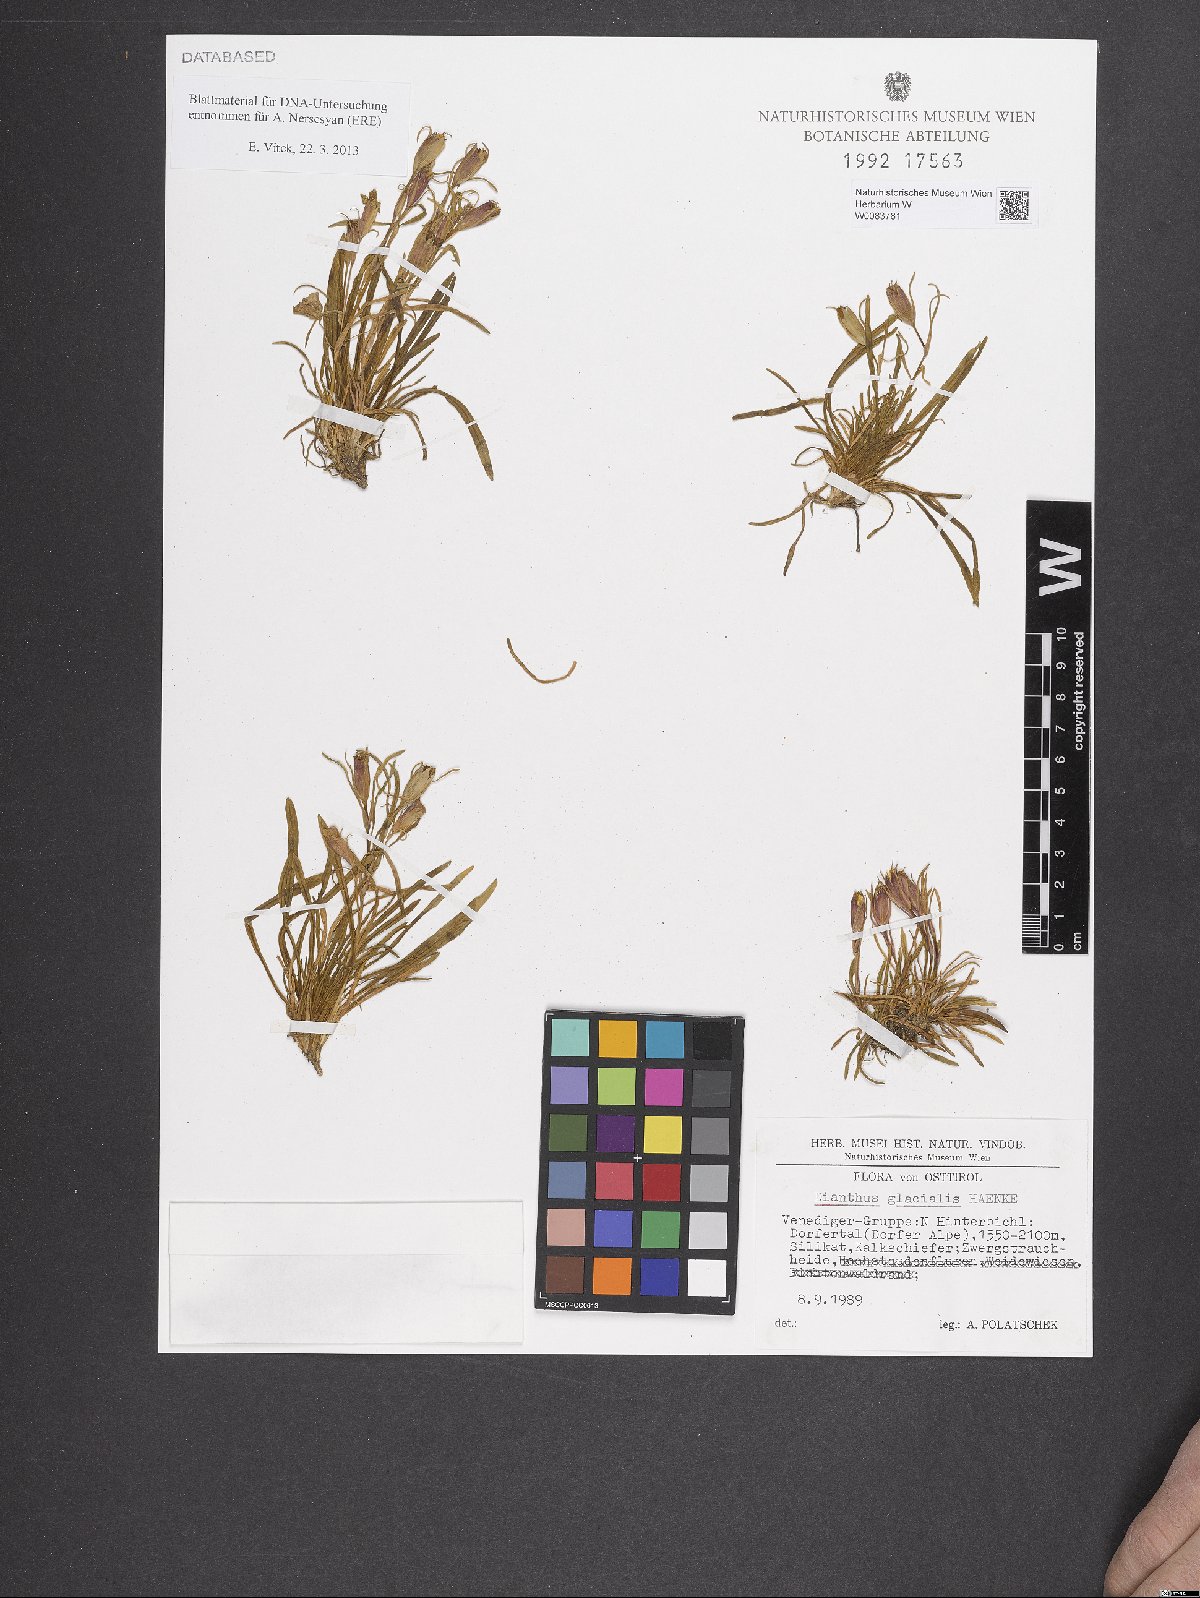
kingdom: Plantae
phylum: Tracheophyta
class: Magnoliopsida
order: Caryophyllales
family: Caryophyllaceae
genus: Dianthus
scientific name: Dianthus glacialis
